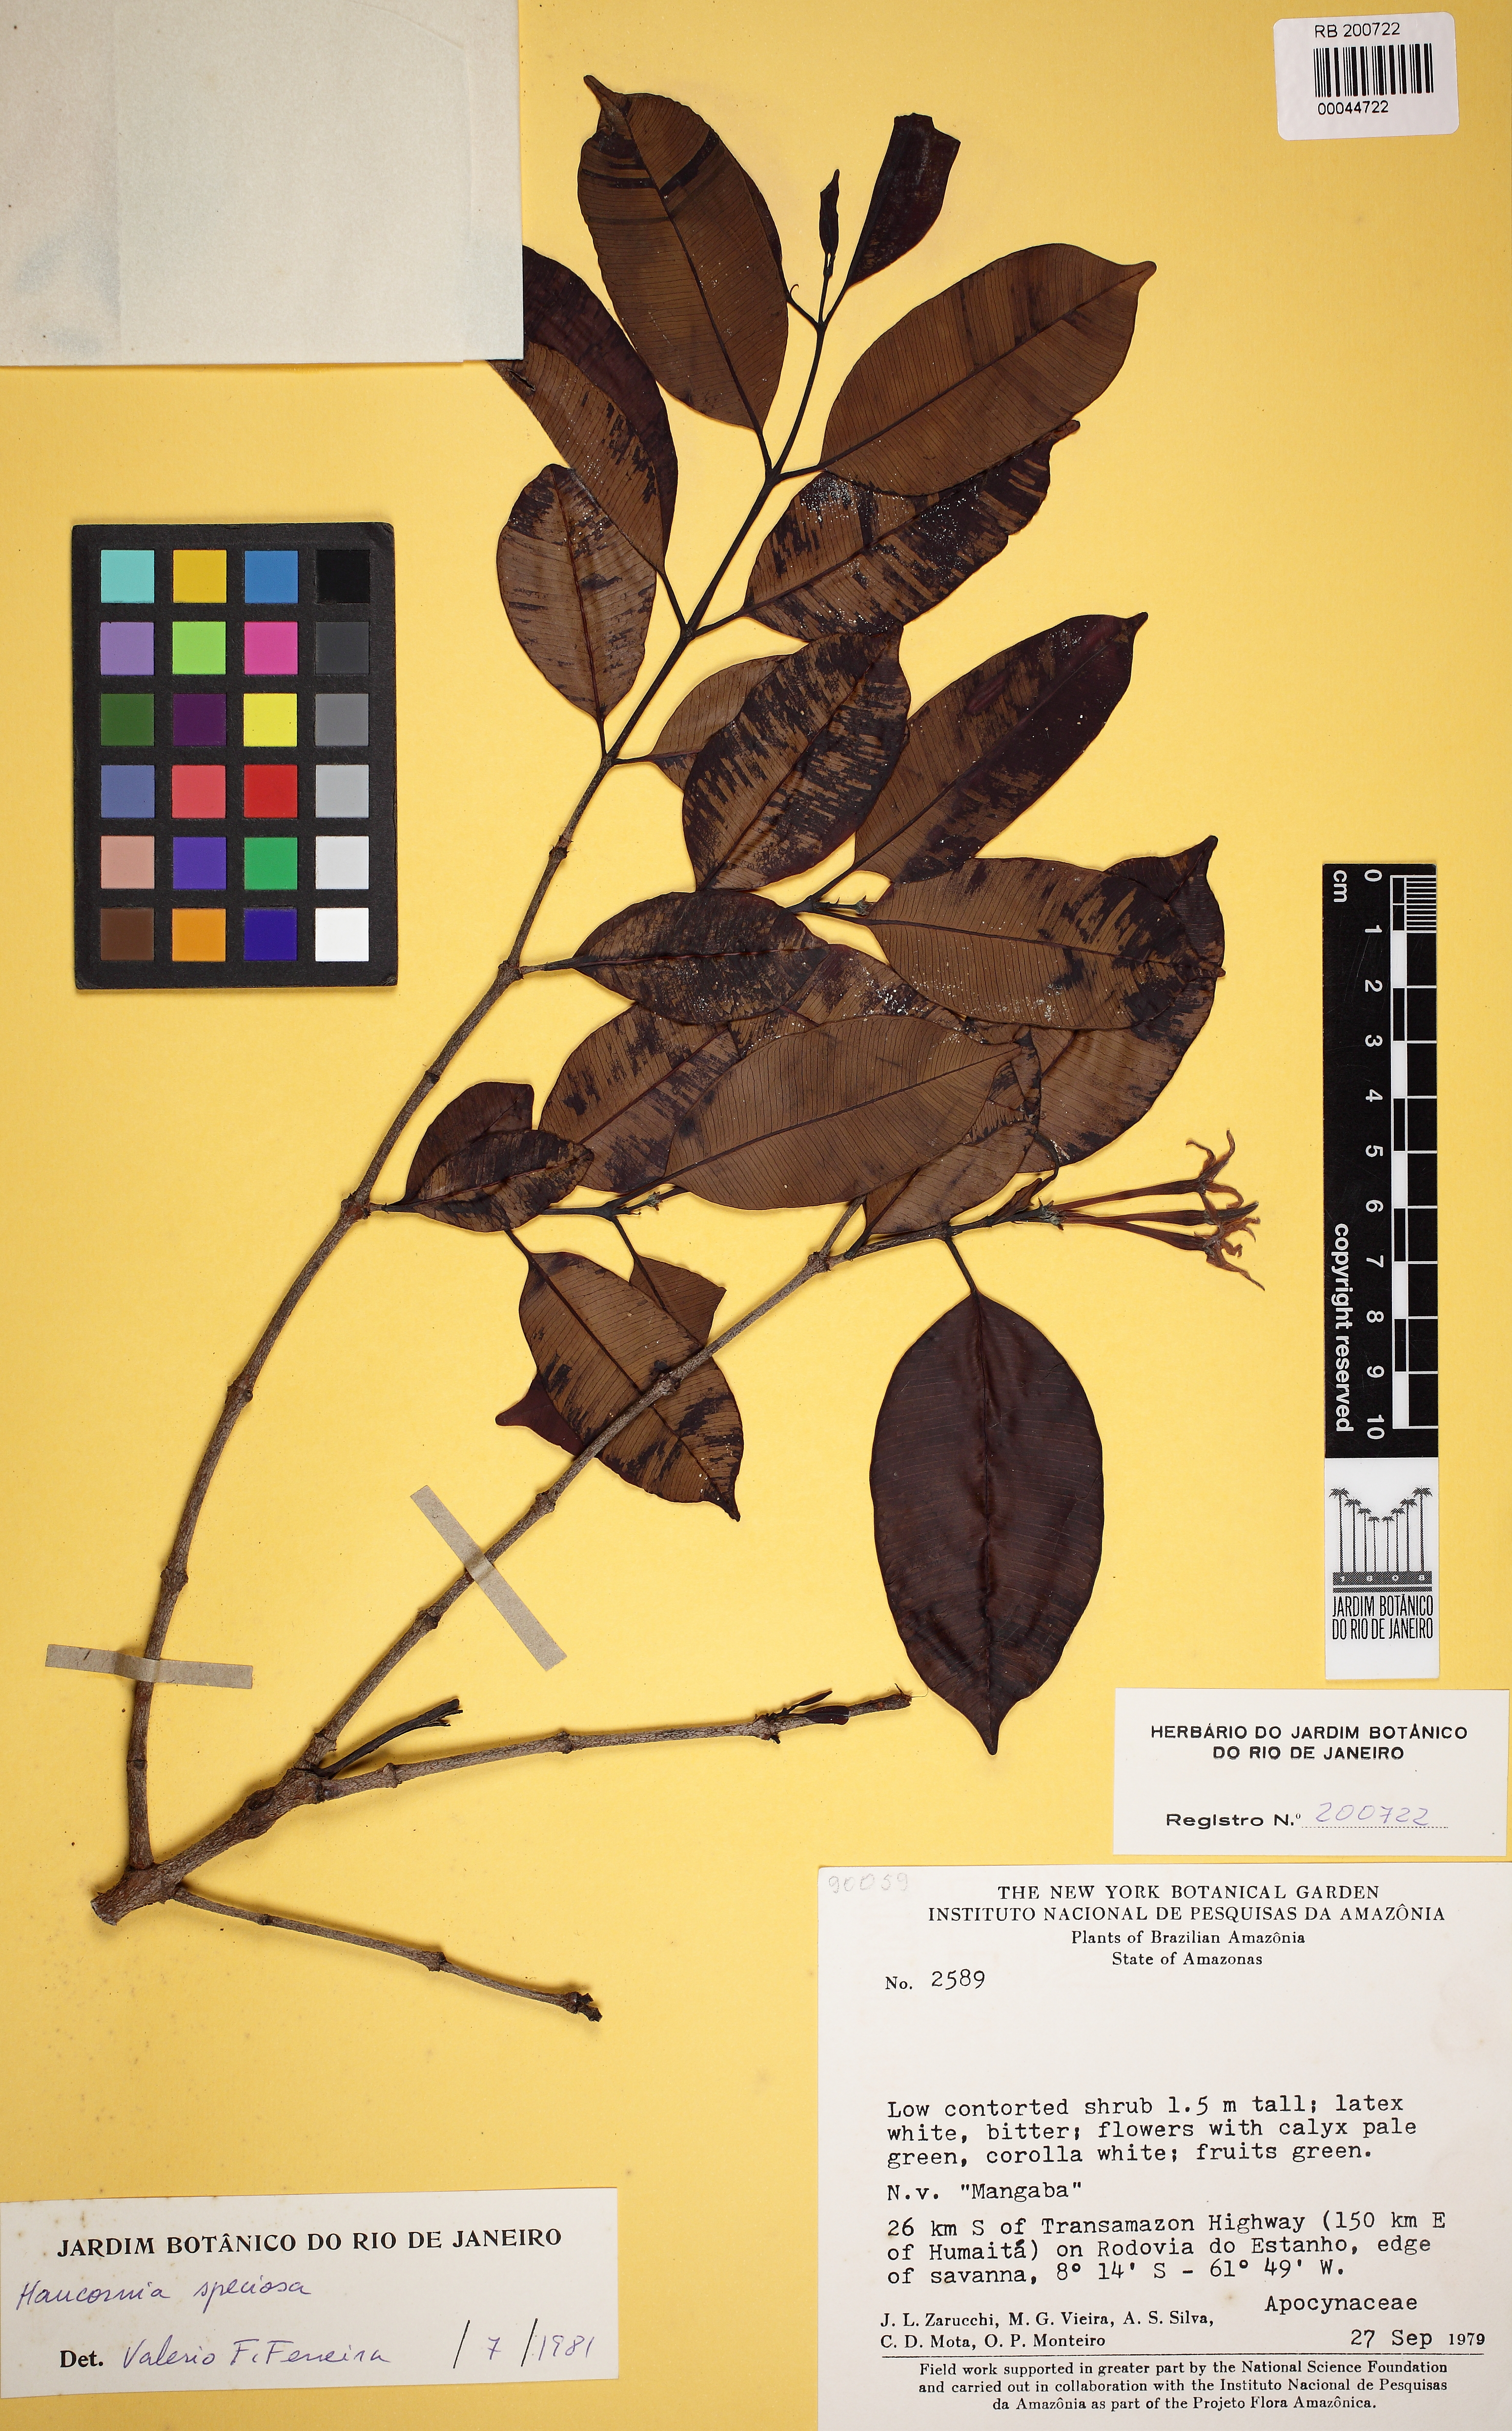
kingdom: Plantae
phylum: Tracheophyta
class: Magnoliopsida
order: Gentianales
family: Apocynaceae
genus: Hancornia
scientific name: Hancornia speciosa
